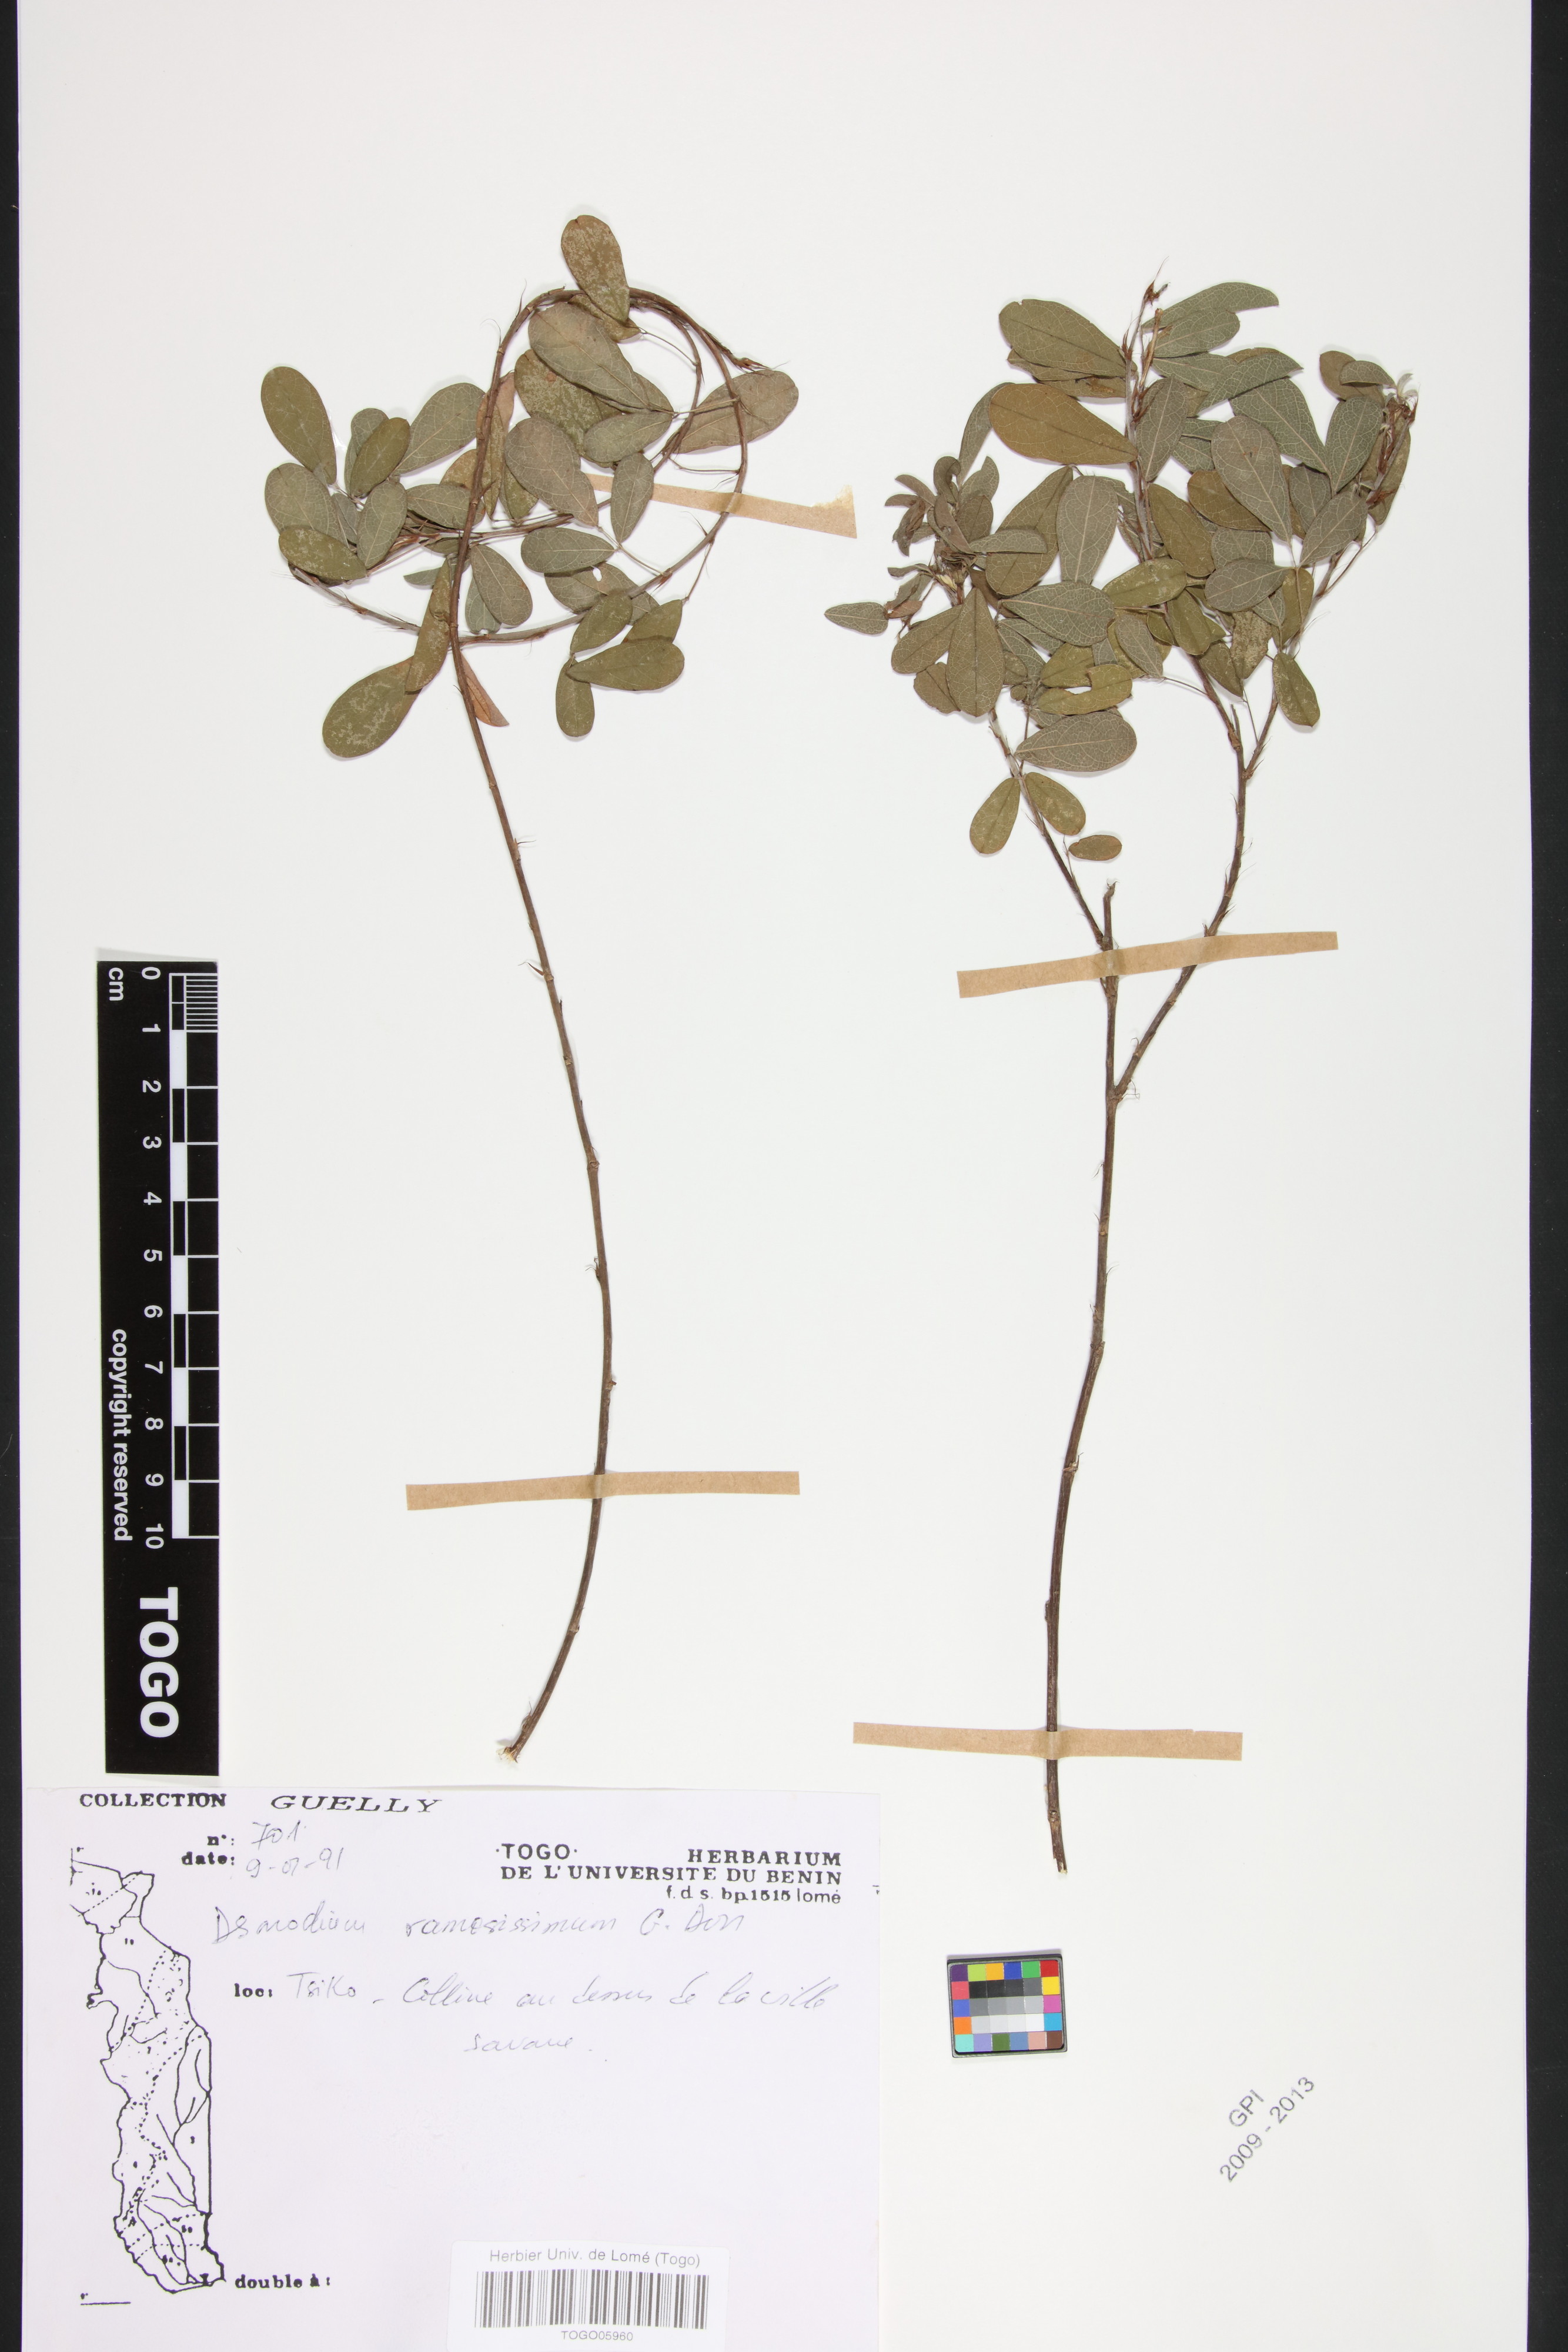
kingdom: Plantae
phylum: Tracheophyta
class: Magnoliopsida
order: Fabales
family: Fabaceae
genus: Grona
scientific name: Grona ramosissima
